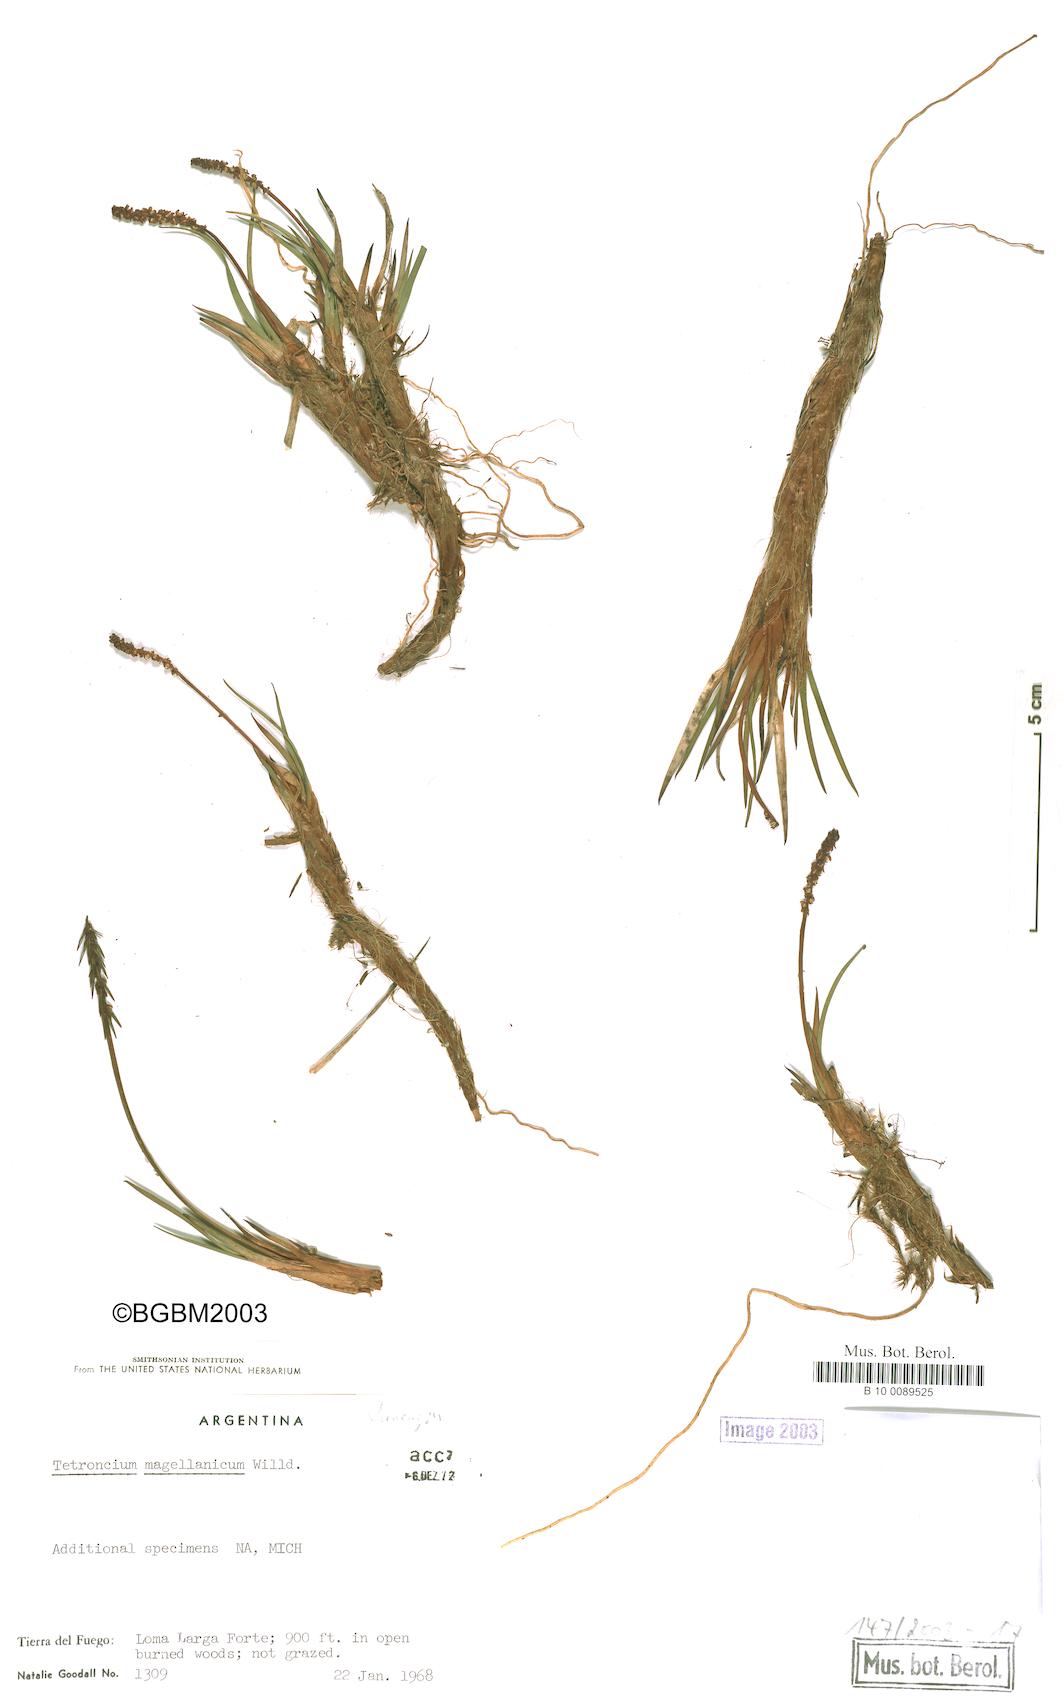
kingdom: Plantae
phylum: Tracheophyta
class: Liliopsida
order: Alismatales
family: Juncaginaceae
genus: Tetroncium
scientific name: Tetroncium magellanicum
